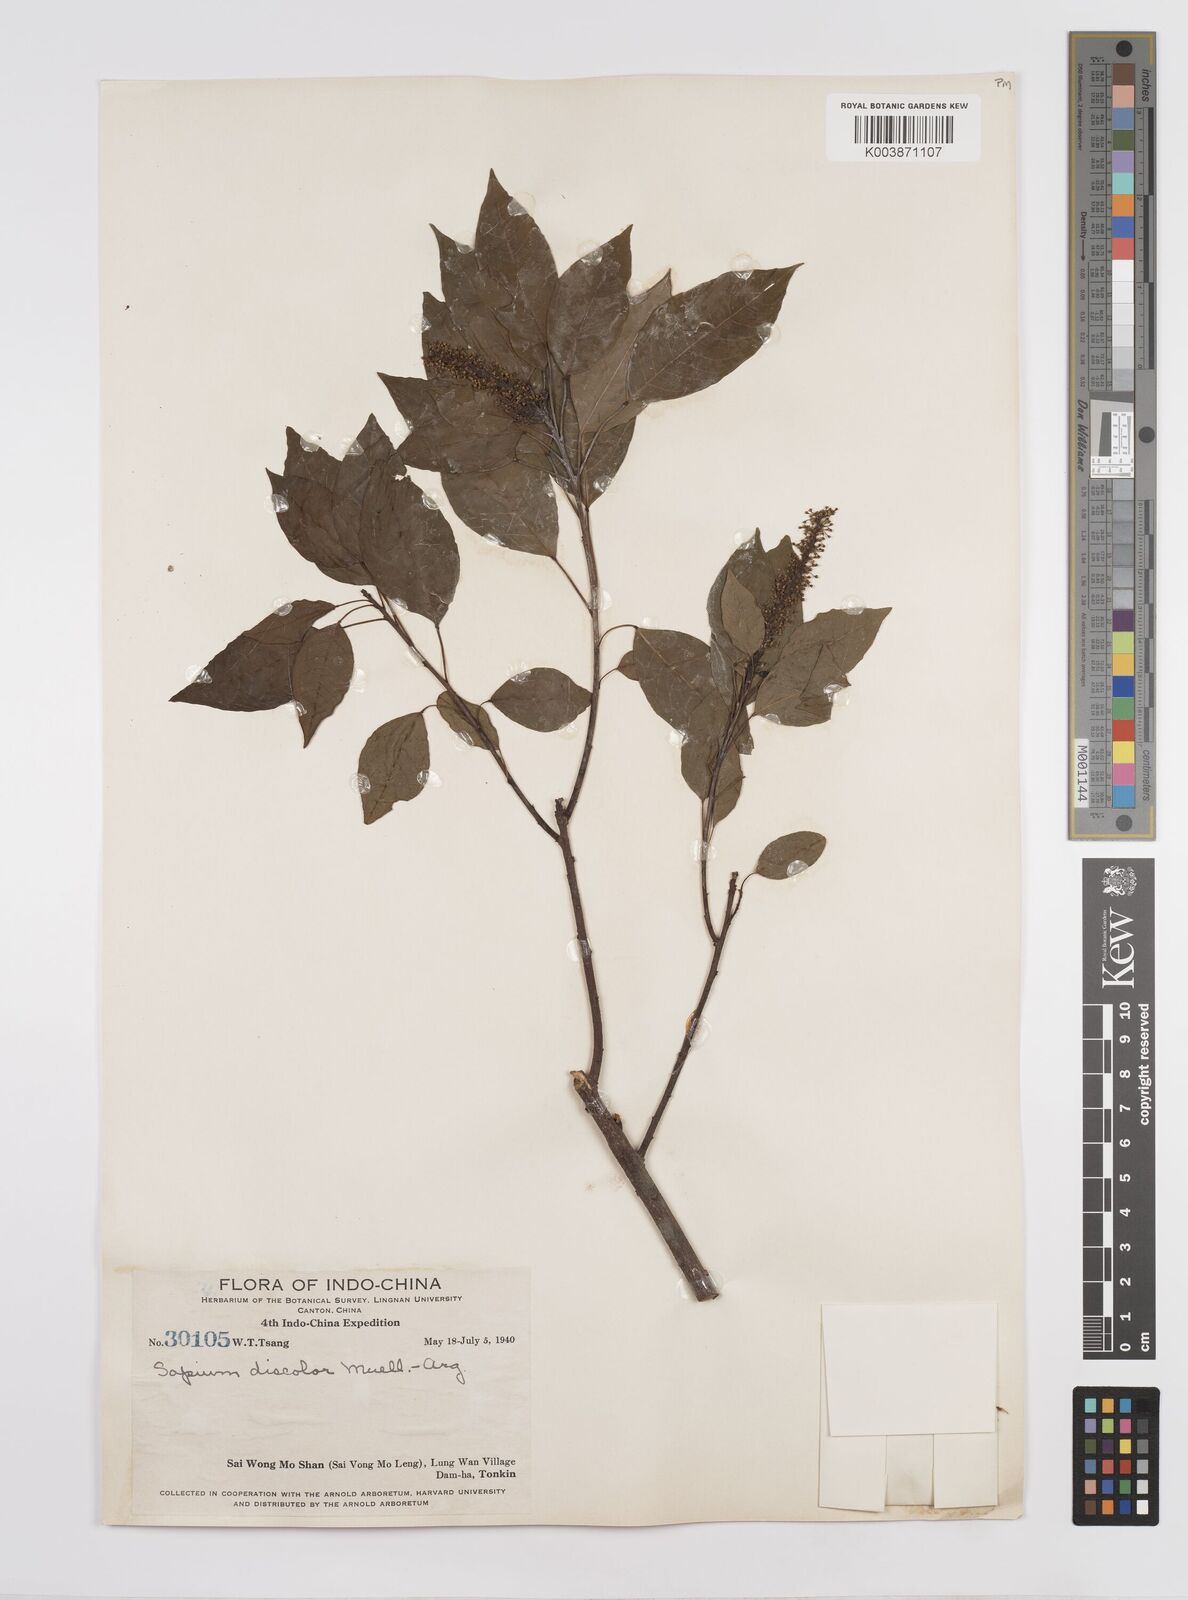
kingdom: Plantae
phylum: Tracheophyta
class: Magnoliopsida
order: Malpighiales
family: Euphorbiaceae
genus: Triadica
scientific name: Triadica cochinchinensis
